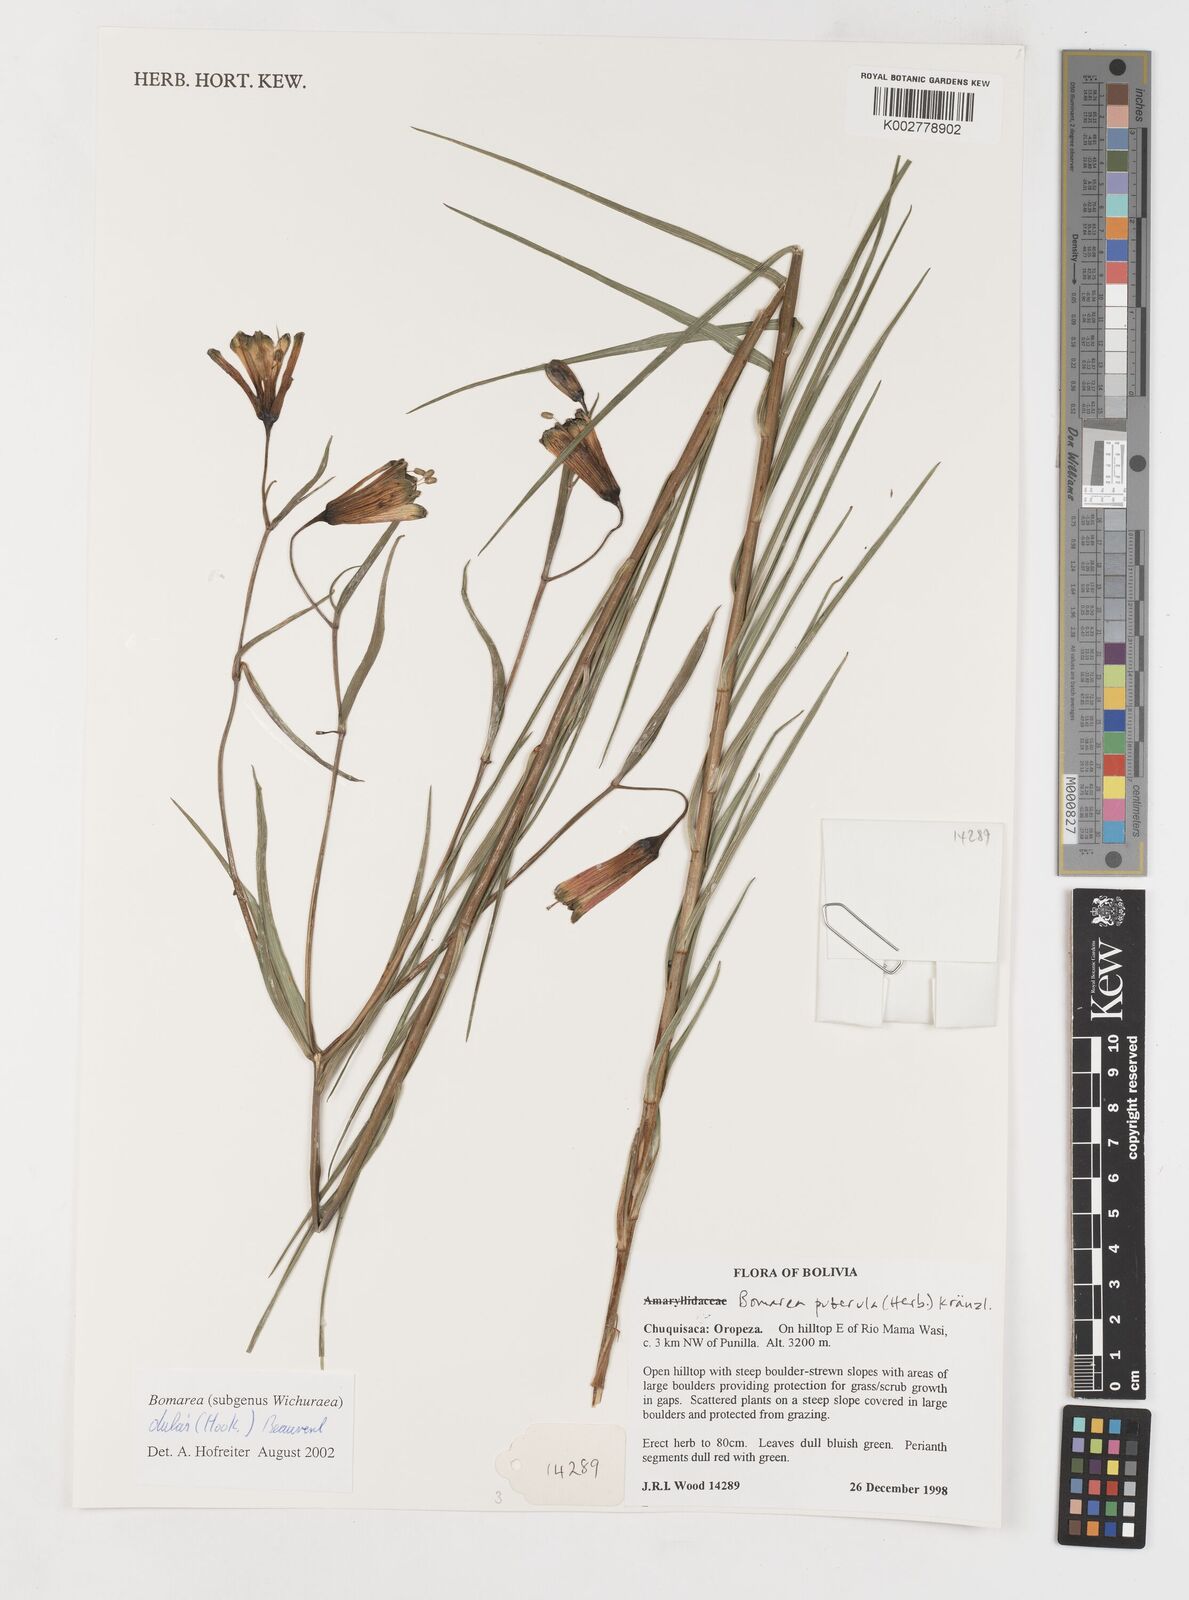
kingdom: Plantae
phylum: Tracheophyta
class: Liliopsida
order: Liliales
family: Alstroemeriaceae
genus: Bomarea
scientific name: Bomarea dulcis
